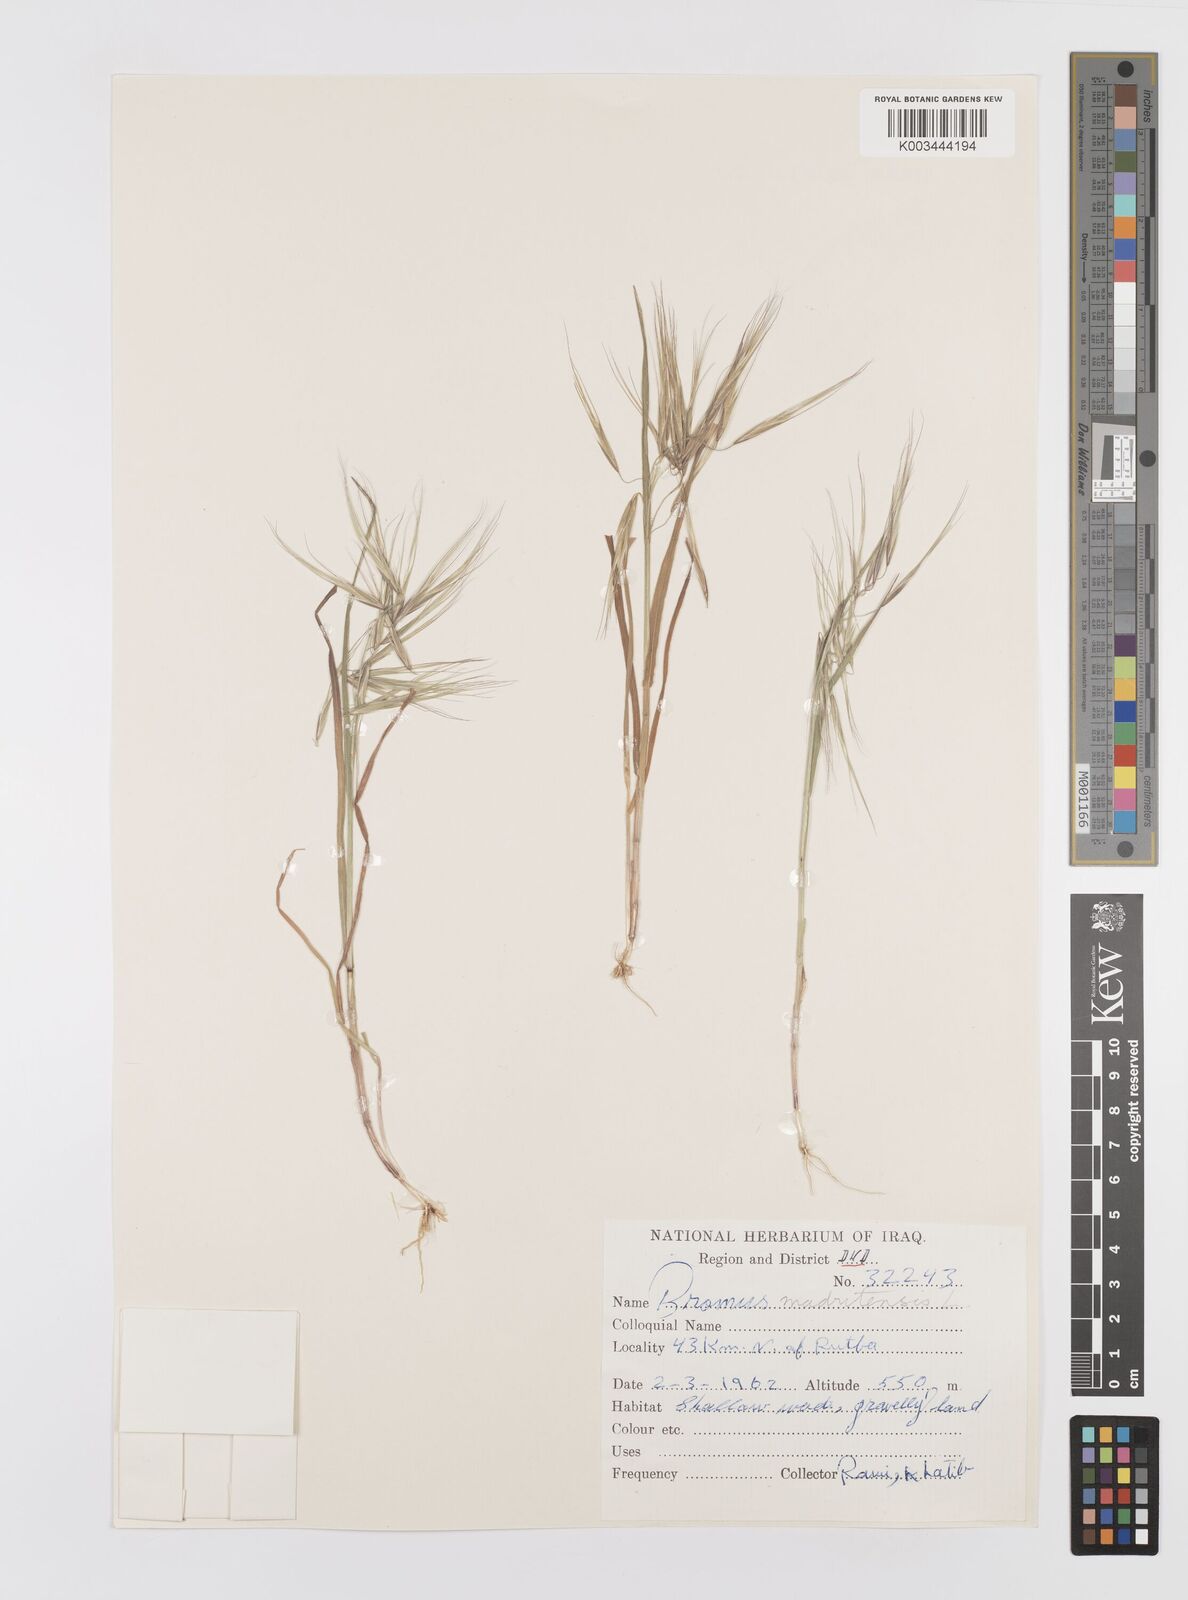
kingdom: Plantae
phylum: Tracheophyta
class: Liliopsida
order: Poales
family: Poaceae
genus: Bromus
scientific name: Bromus madritensis
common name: Compact brome
